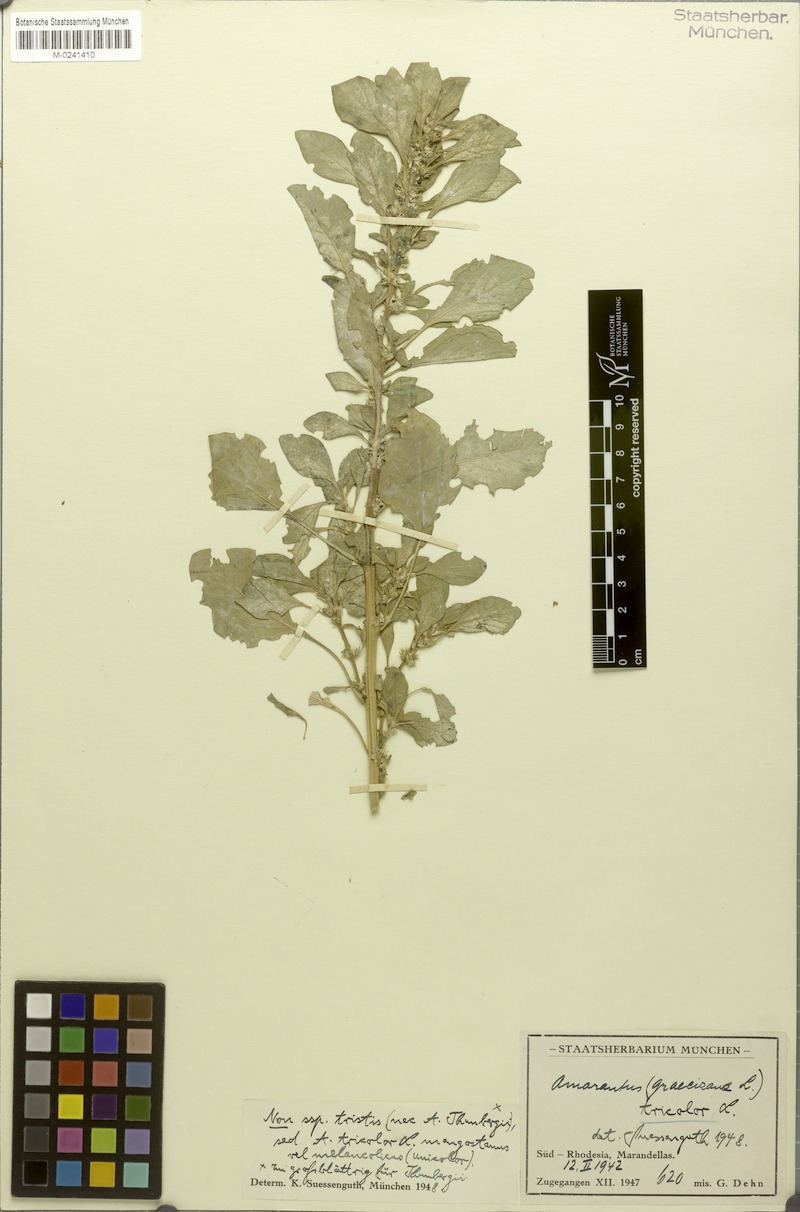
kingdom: Plantae
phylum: Tracheophyta
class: Magnoliopsida
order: Caryophyllales
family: Amaranthaceae
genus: Amaranthus
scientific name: Amaranthus tricolor
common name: Joseph's-coat
